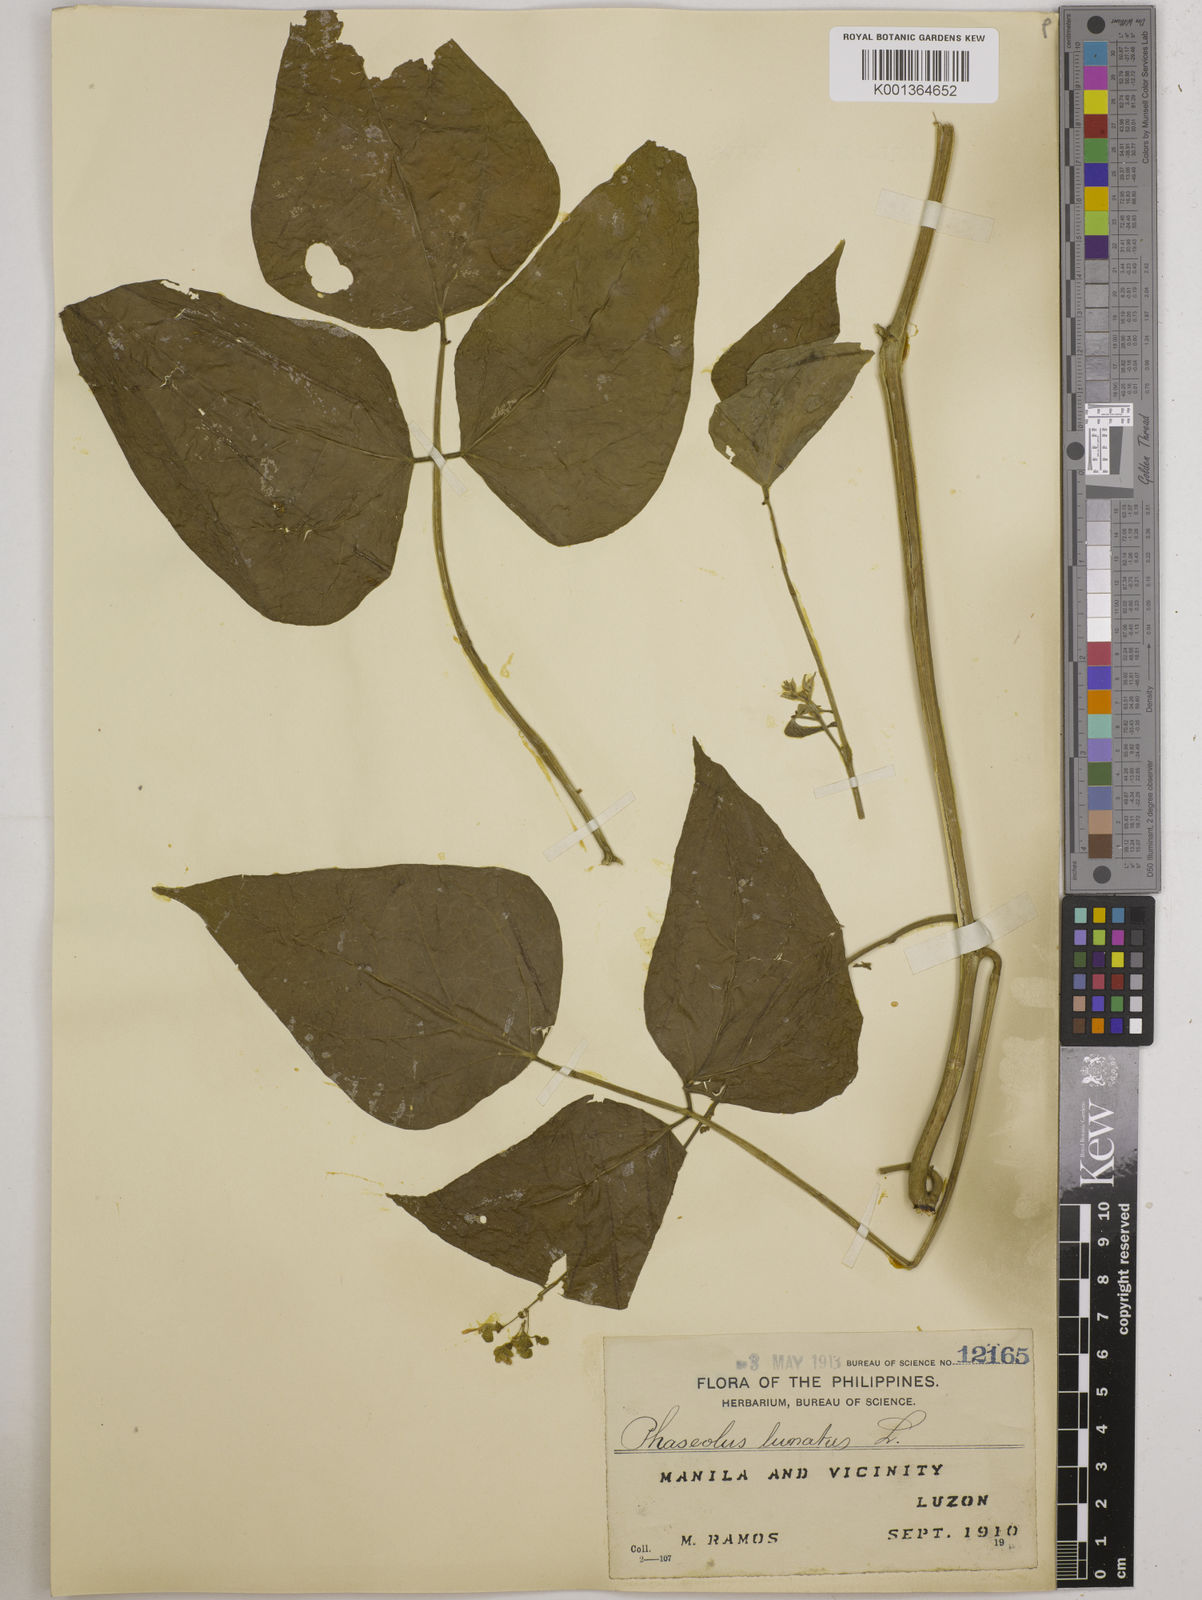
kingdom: Plantae
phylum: Tracheophyta
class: Magnoliopsida
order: Fabales
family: Fabaceae
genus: Phaseolus
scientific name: Phaseolus lunatus
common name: Sieva bean
